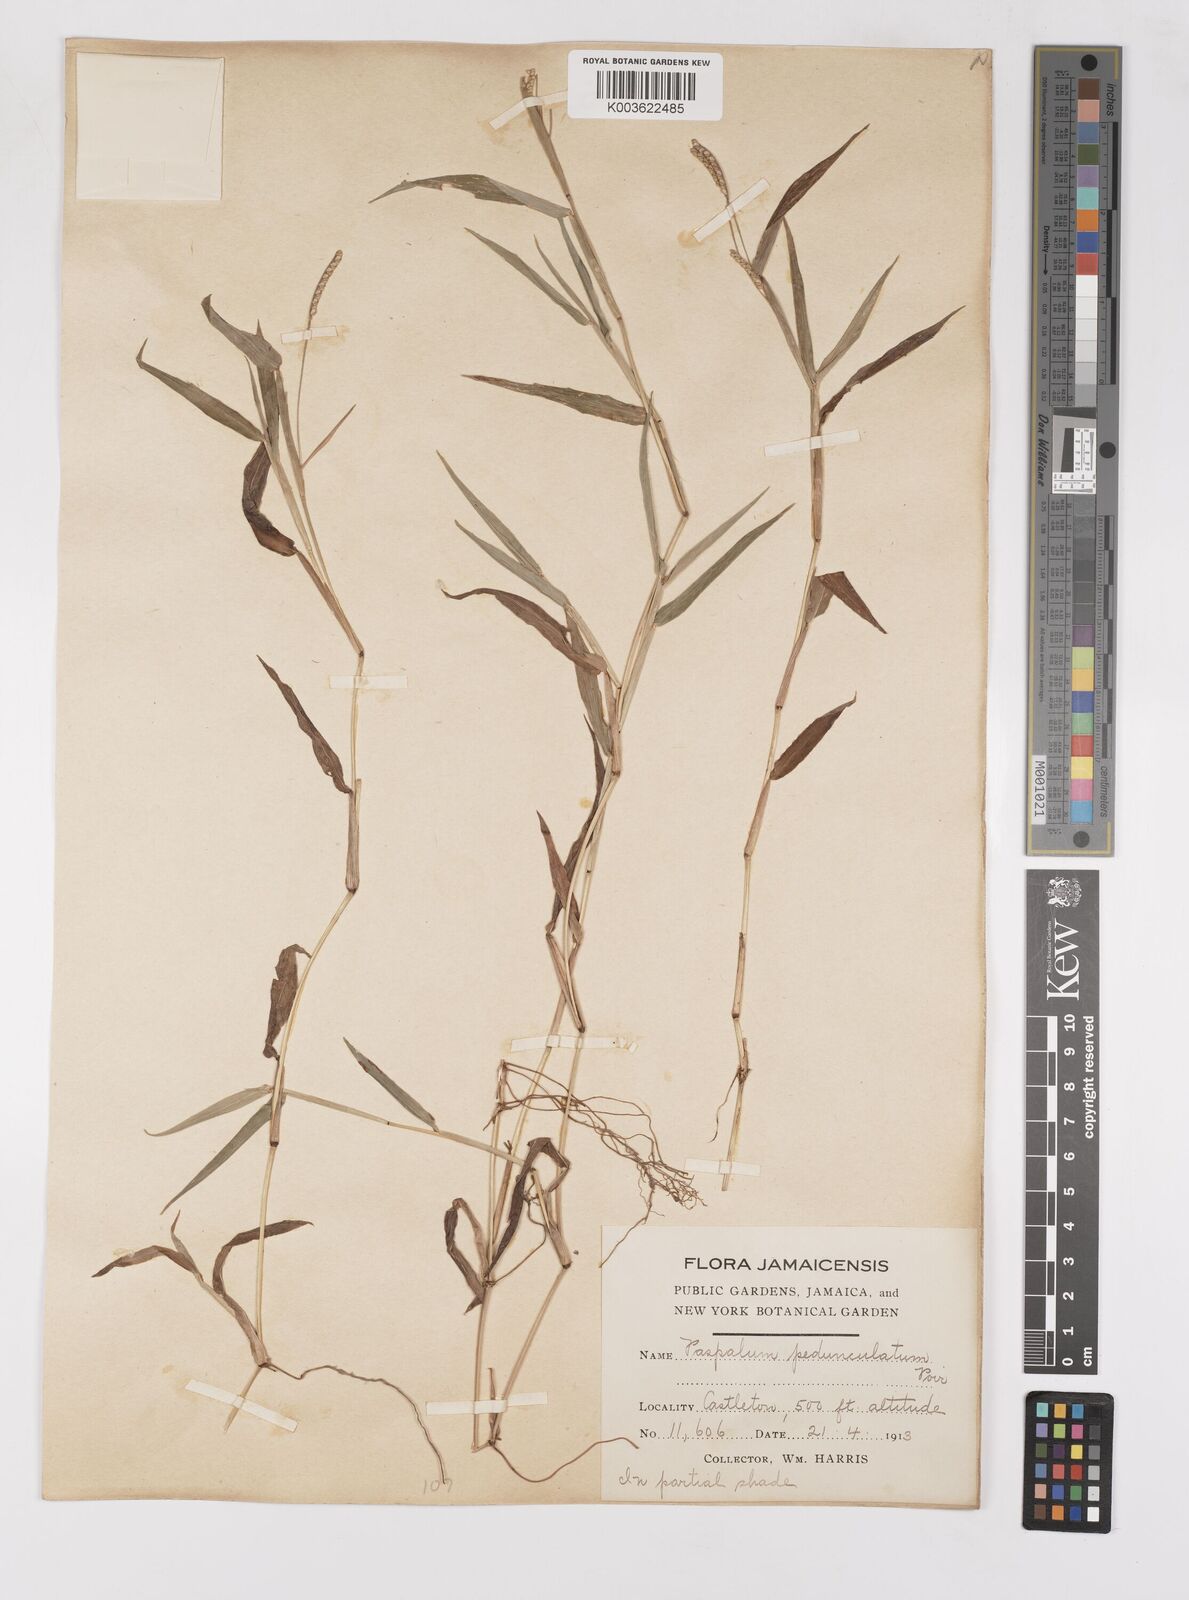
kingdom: Plantae
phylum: Tracheophyta
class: Liliopsida
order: Poales
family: Poaceae
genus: Paspalum
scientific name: Paspalum decumbens
